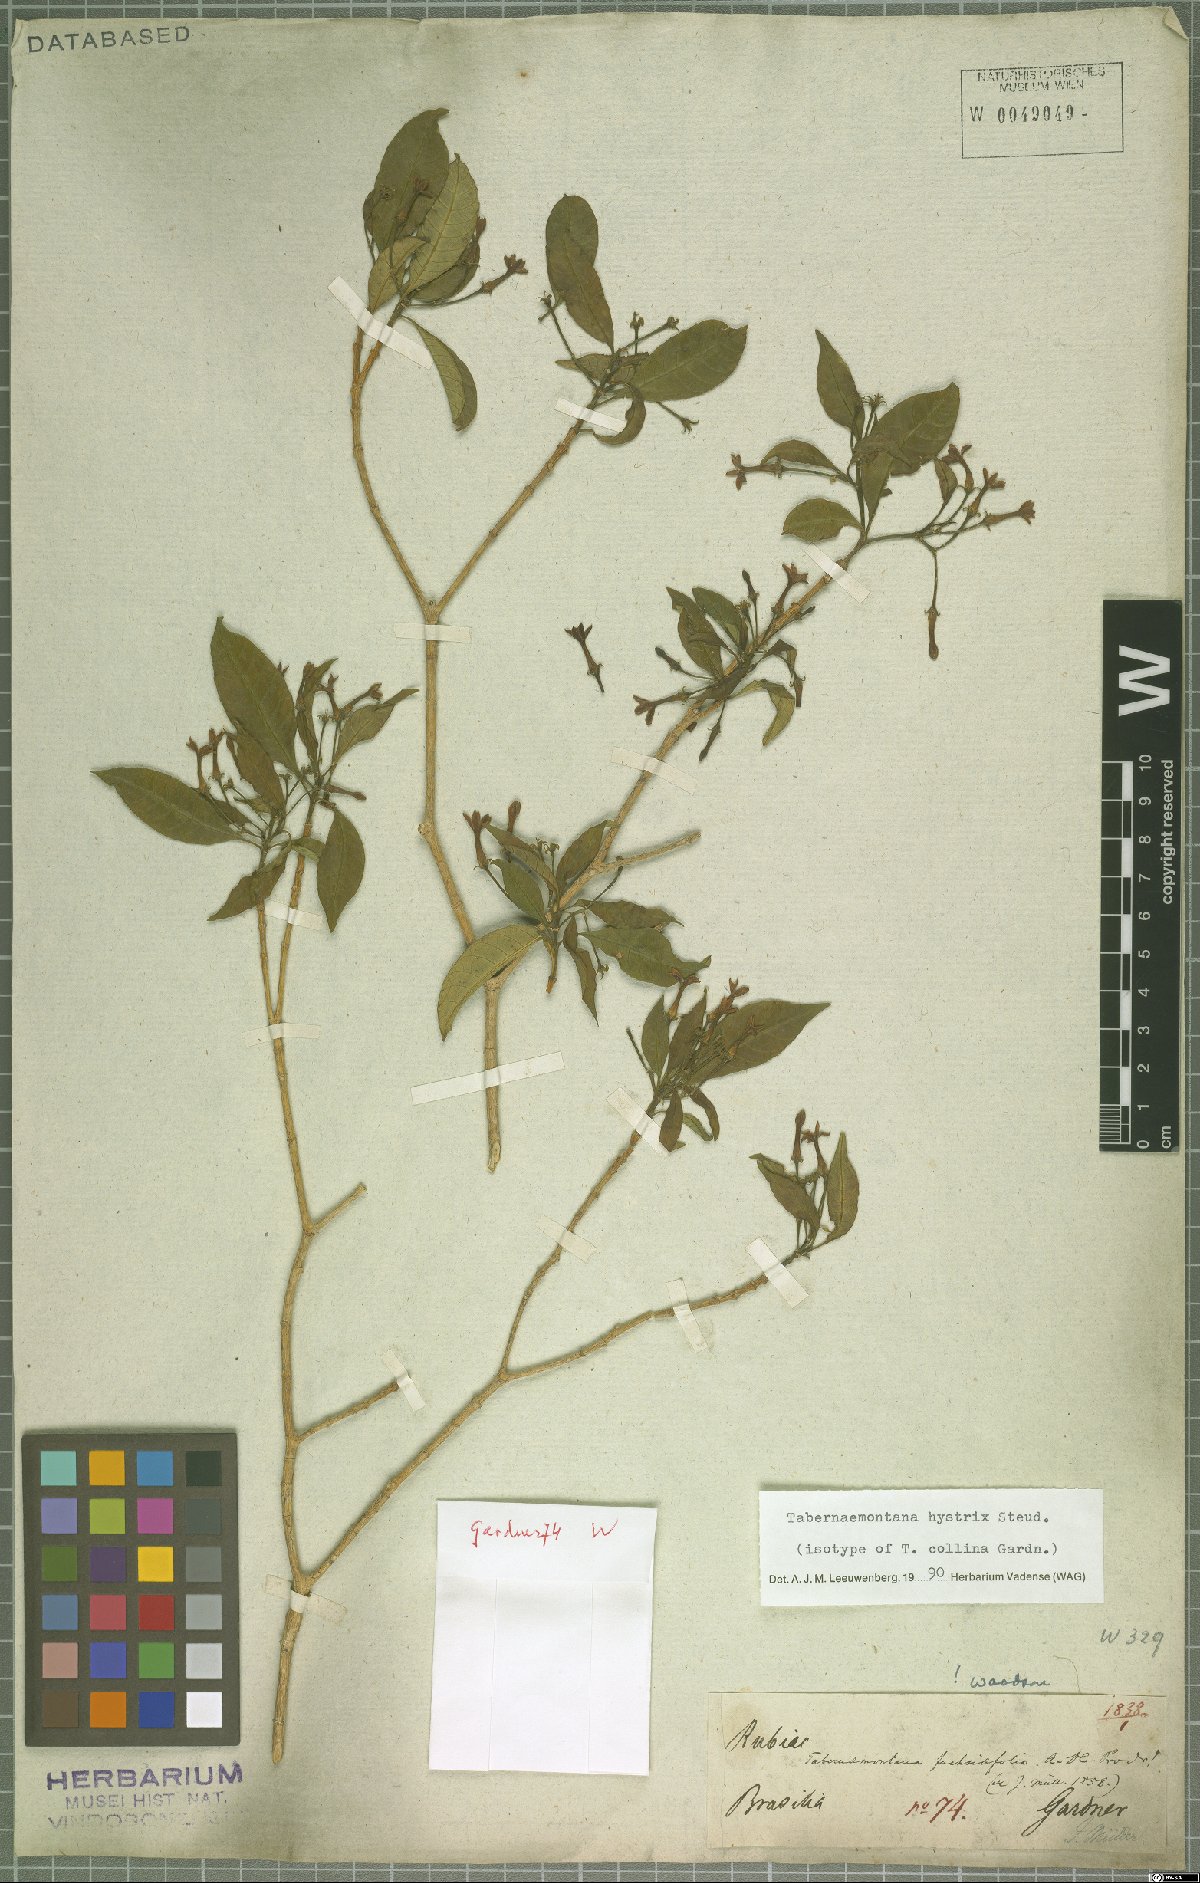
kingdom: Plantae
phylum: Tracheophyta
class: Magnoliopsida
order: Gentianales
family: Apocynaceae
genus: Tabernaemontana
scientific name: Tabernaemontana hystrix
